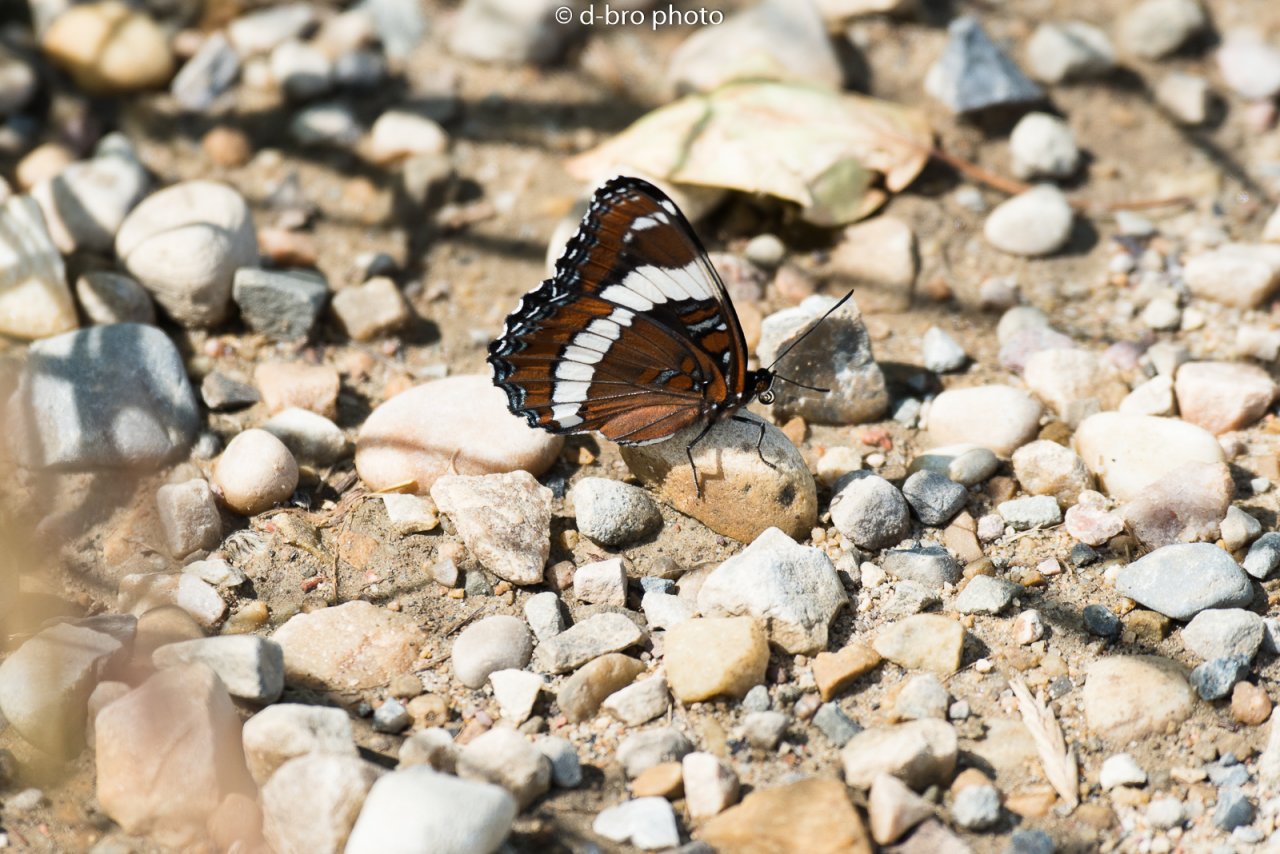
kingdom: Animalia
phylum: Arthropoda
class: Insecta
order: Lepidoptera
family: Nymphalidae
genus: Limenitis
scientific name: Limenitis arthemis
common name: Red-spotted Admiral
